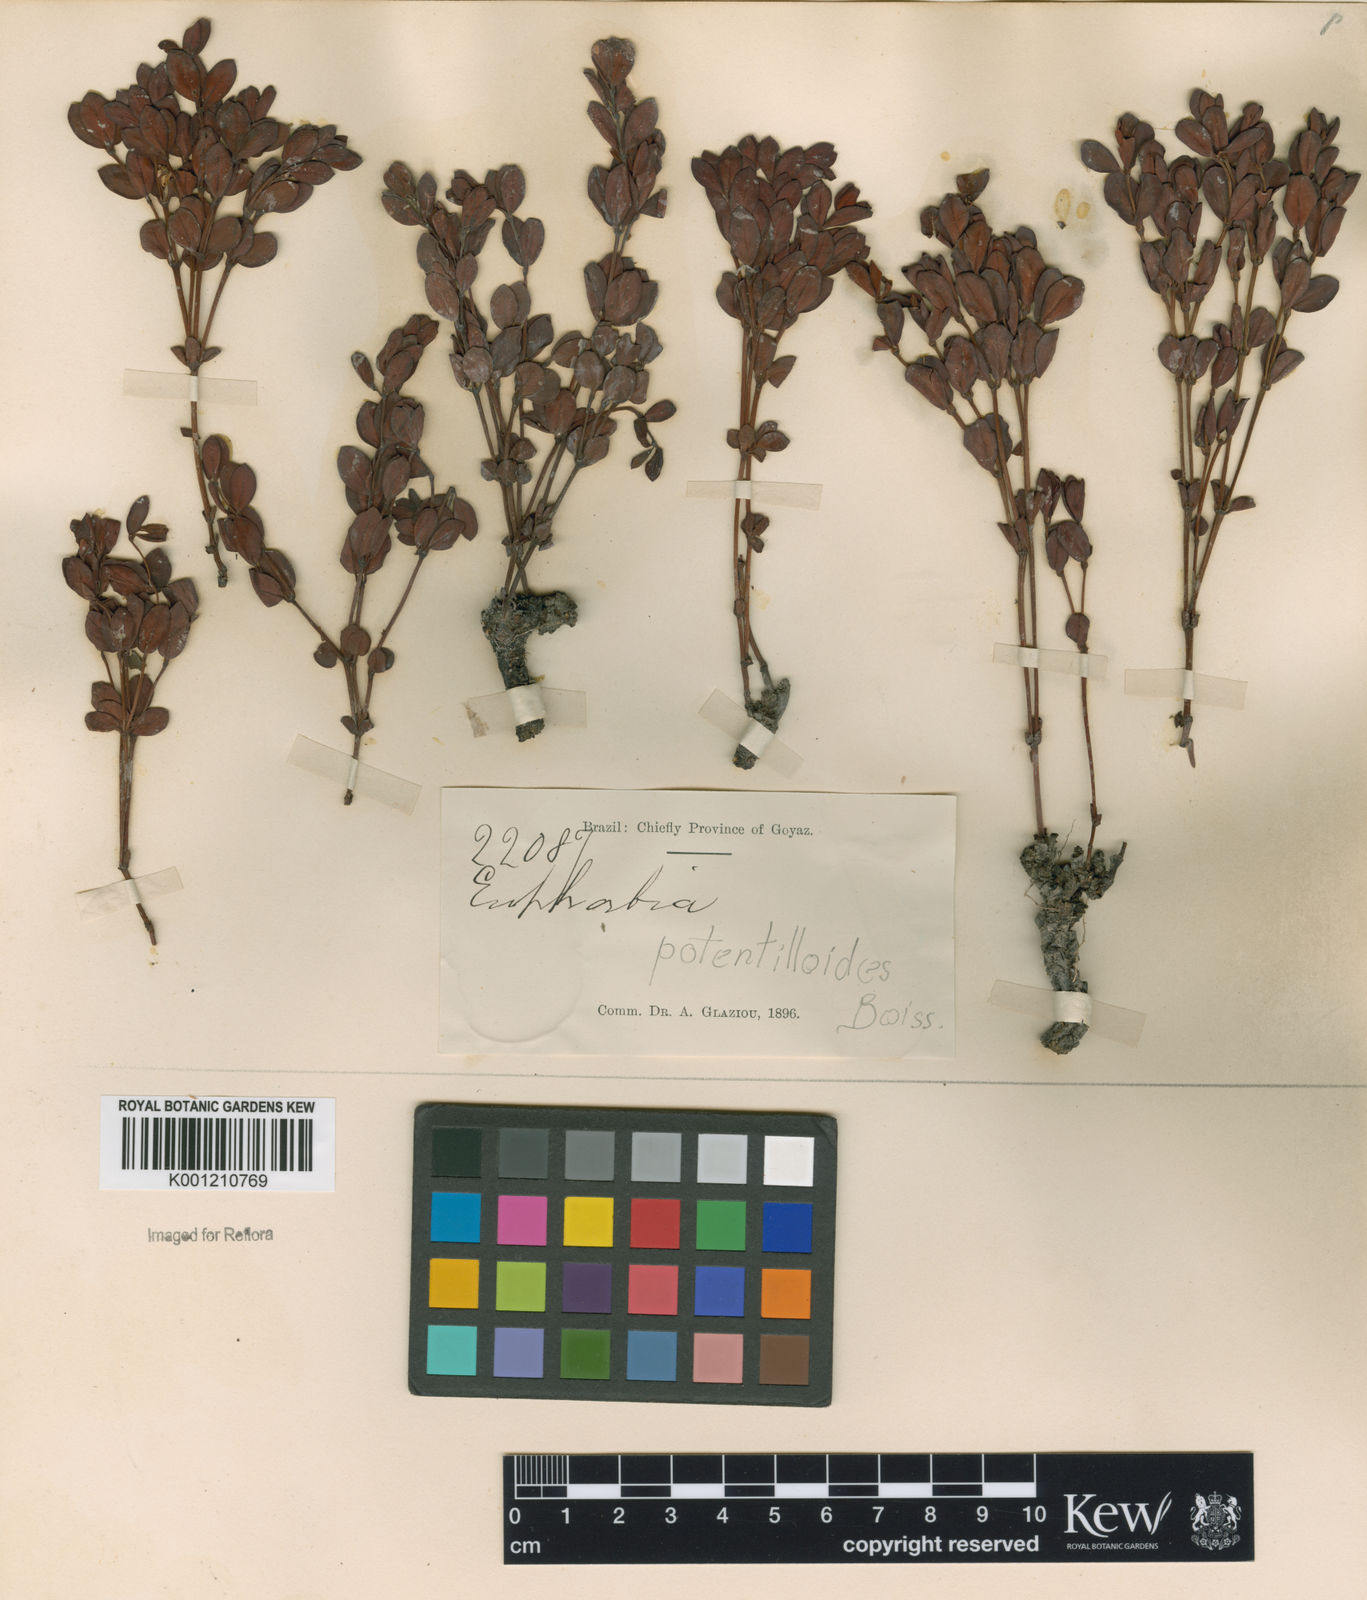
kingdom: Plantae
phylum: Tracheophyta
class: Magnoliopsida
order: Malpighiales
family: Euphorbiaceae
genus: Euphorbia
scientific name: Euphorbia potentilloides
